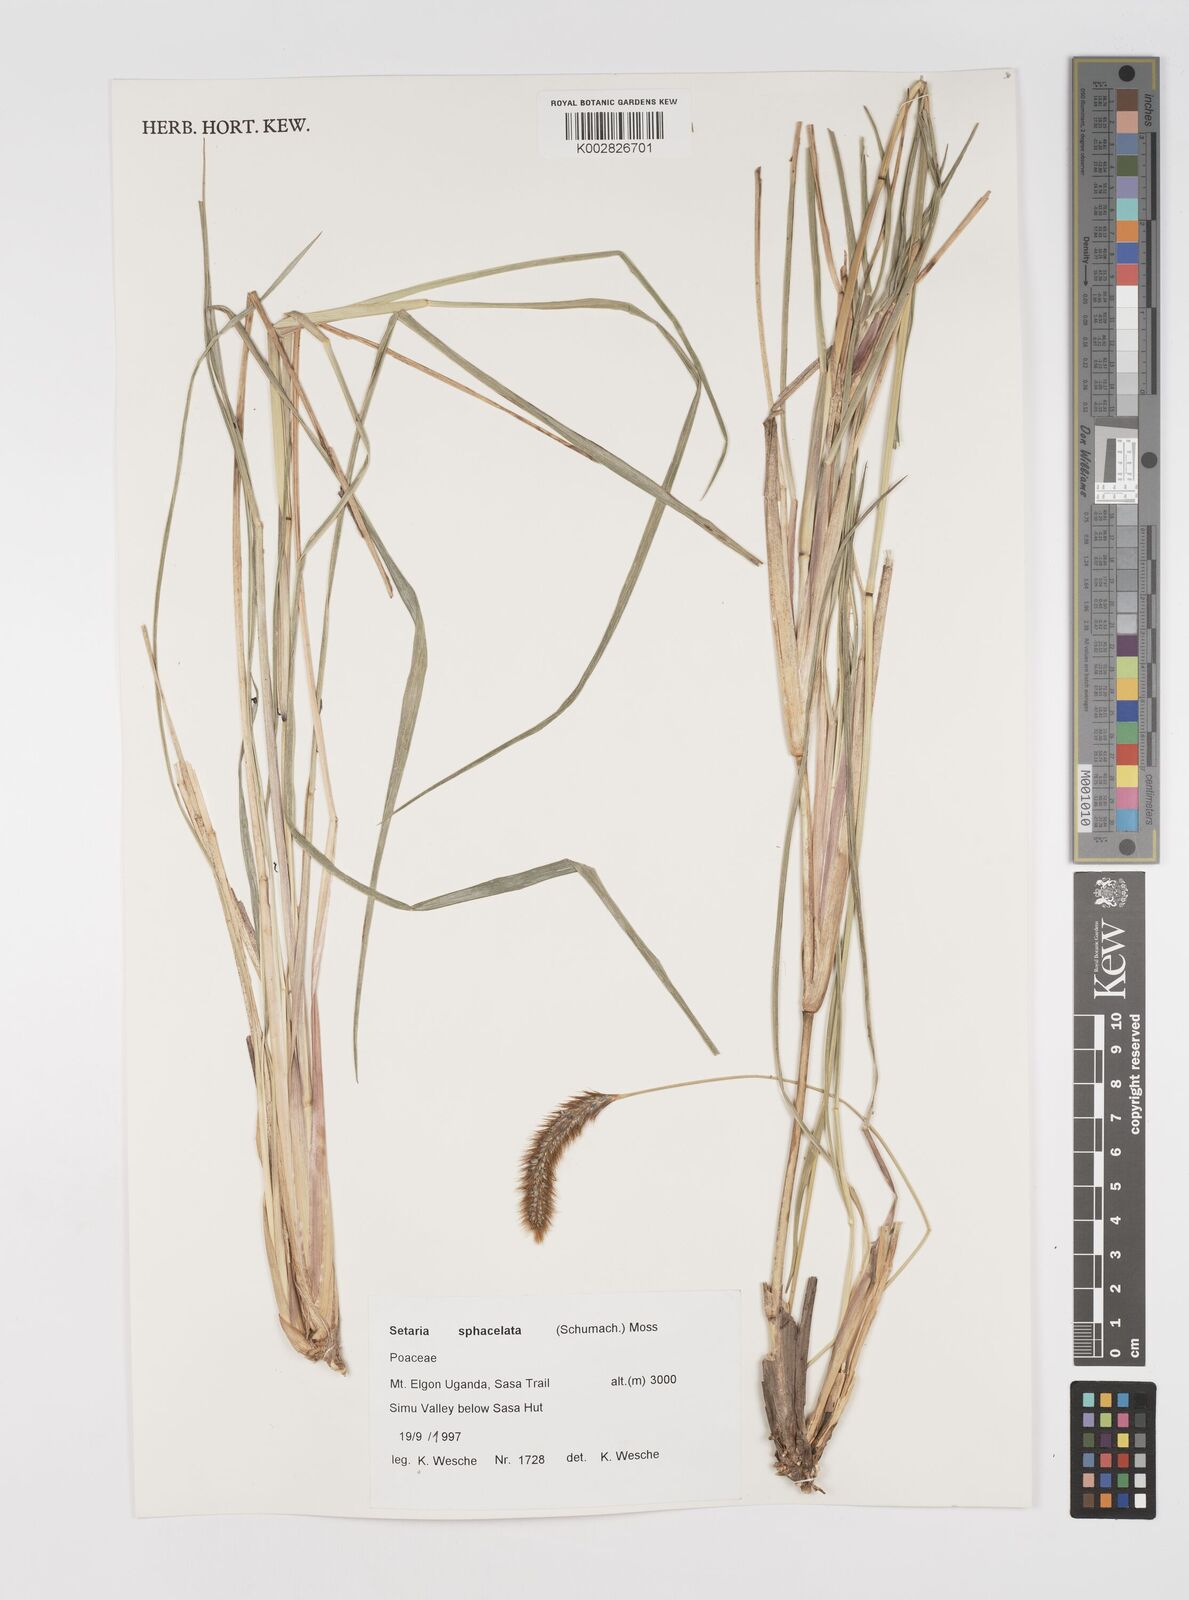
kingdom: Plantae
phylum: Tracheophyta
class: Liliopsida
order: Poales
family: Poaceae
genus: Setaria
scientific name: Setaria sphacelata
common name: African bristlegrass
